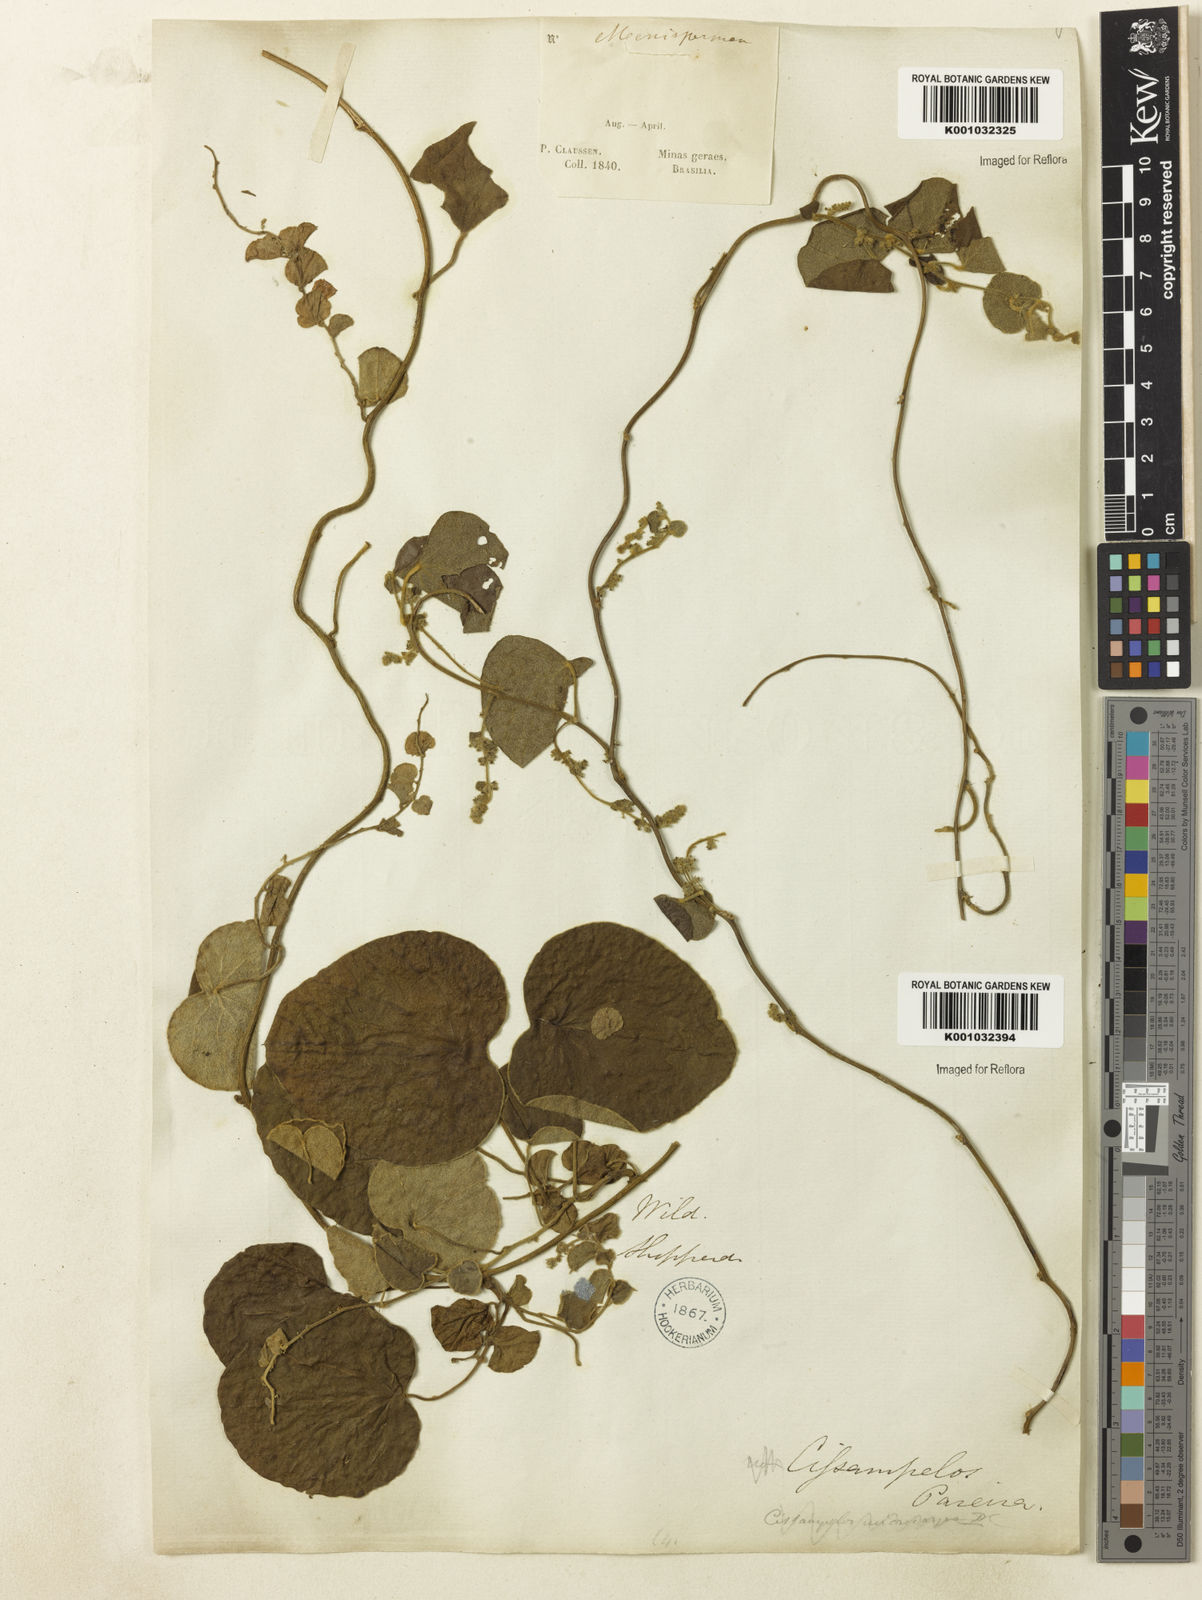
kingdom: Plantae
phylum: Tracheophyta
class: Magnoliopsida
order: Ranunculales
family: Menispermaceae
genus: Cissampelos
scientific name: Cissampelos
